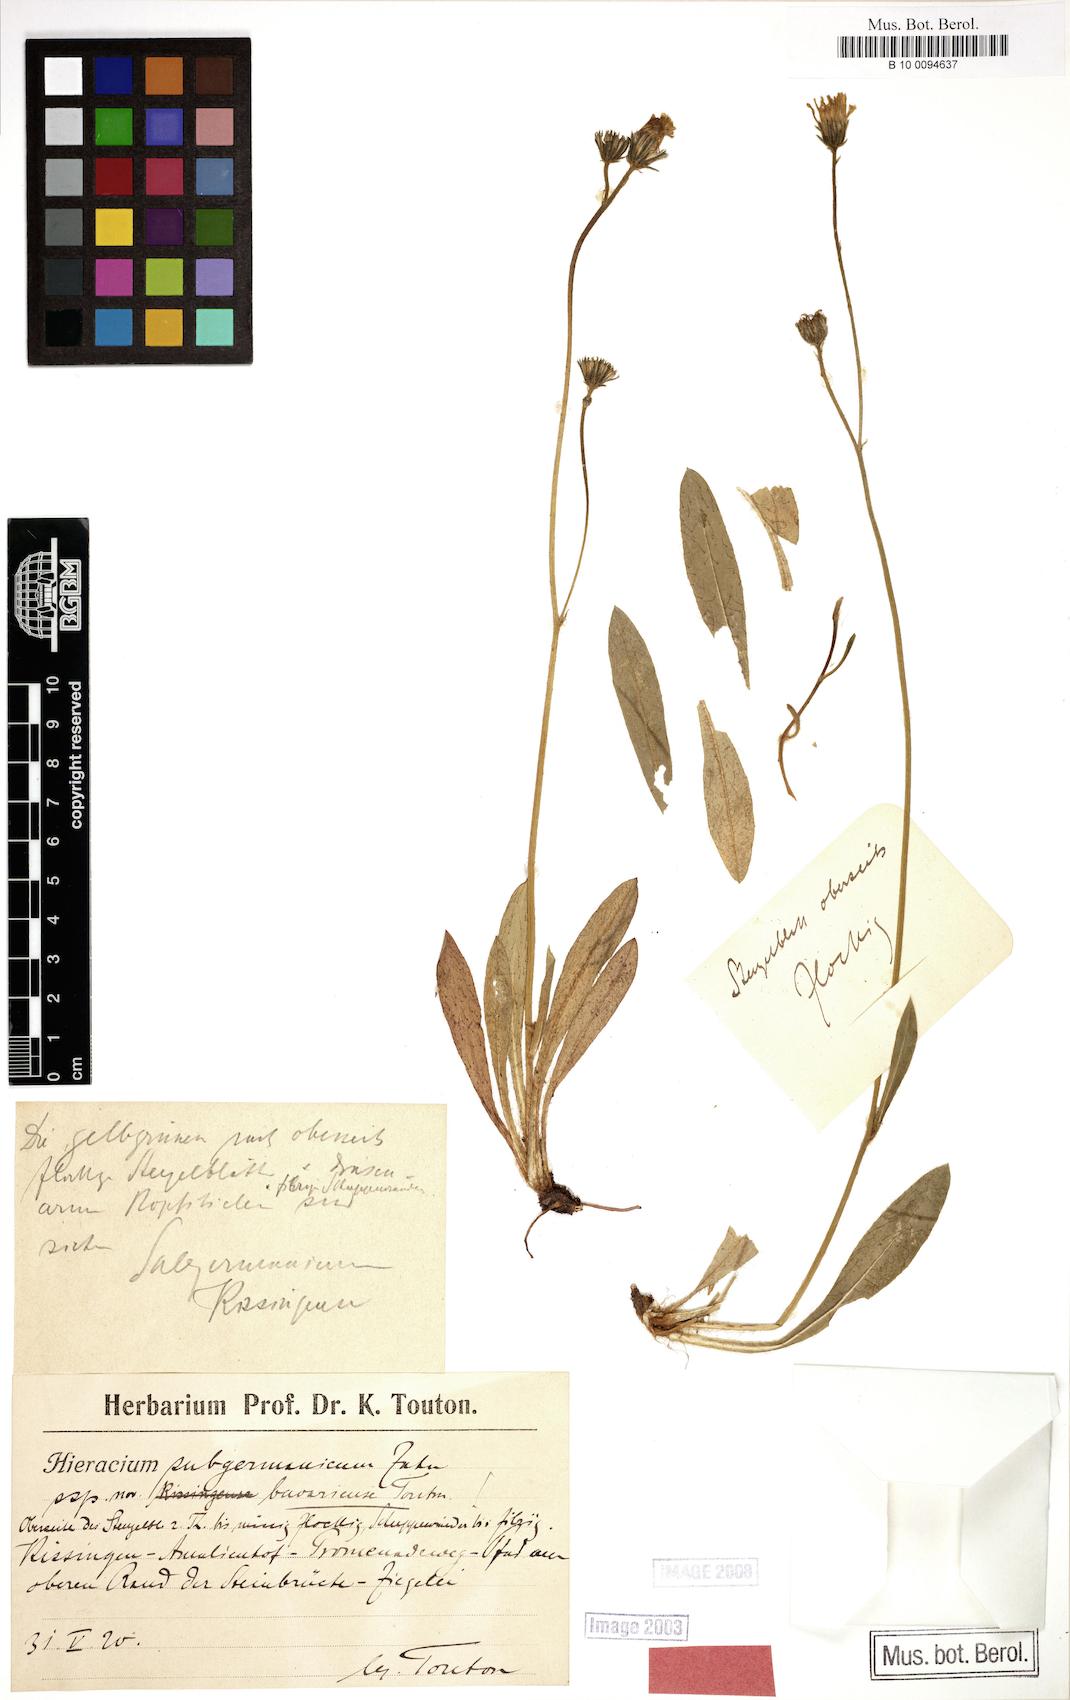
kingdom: Plantae
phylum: Tracheophyta
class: Magnoliopsida
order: Asterales
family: Asteraceae
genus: Pilosella
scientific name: Pilosella pilosellina
